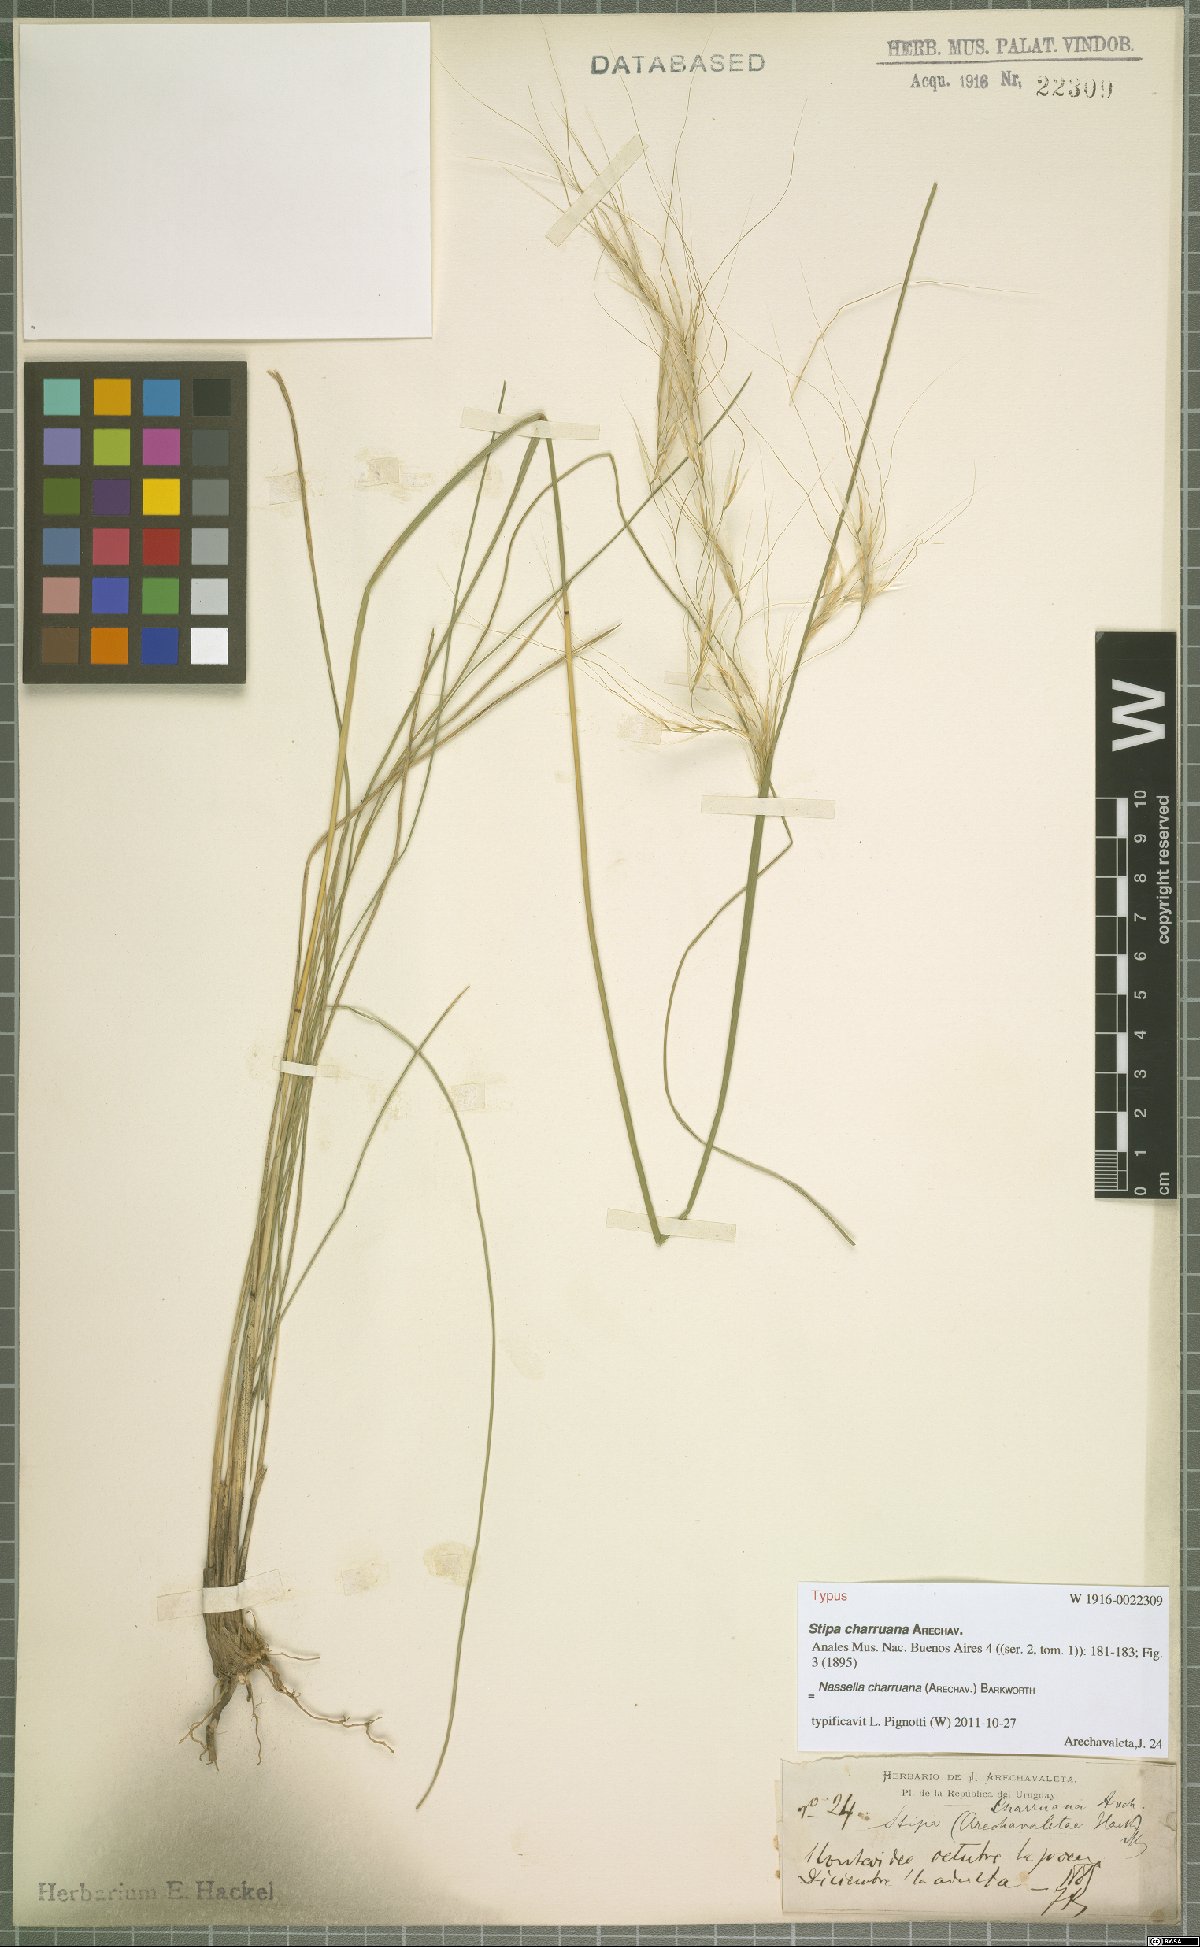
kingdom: Plantae
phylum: Tracheophyta
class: Liliopsida
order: Poales
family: Poaceae
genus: Nassella
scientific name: Nassella charruana
